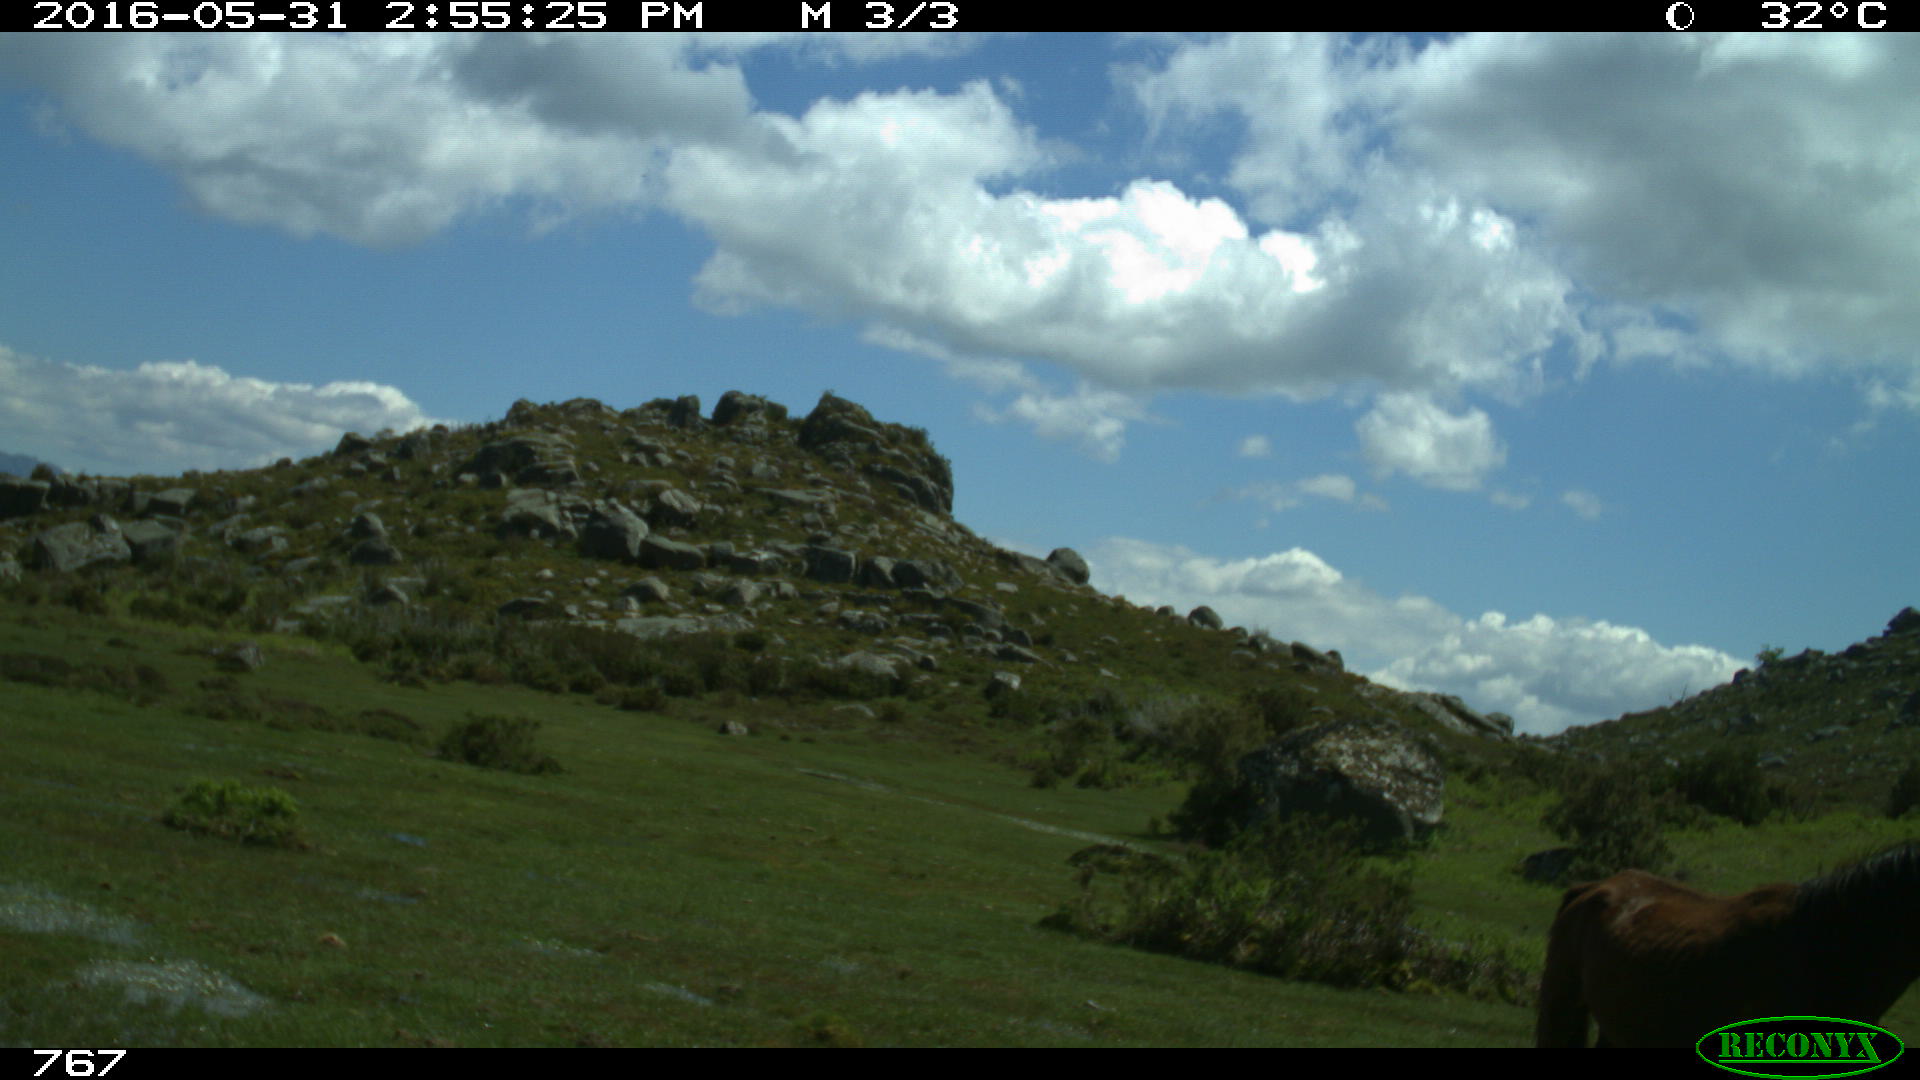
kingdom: Animalia
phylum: Chordata
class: Mammalia
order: Perissodactyla
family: Equidae
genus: Equus
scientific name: Equus caballus
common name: Horse
